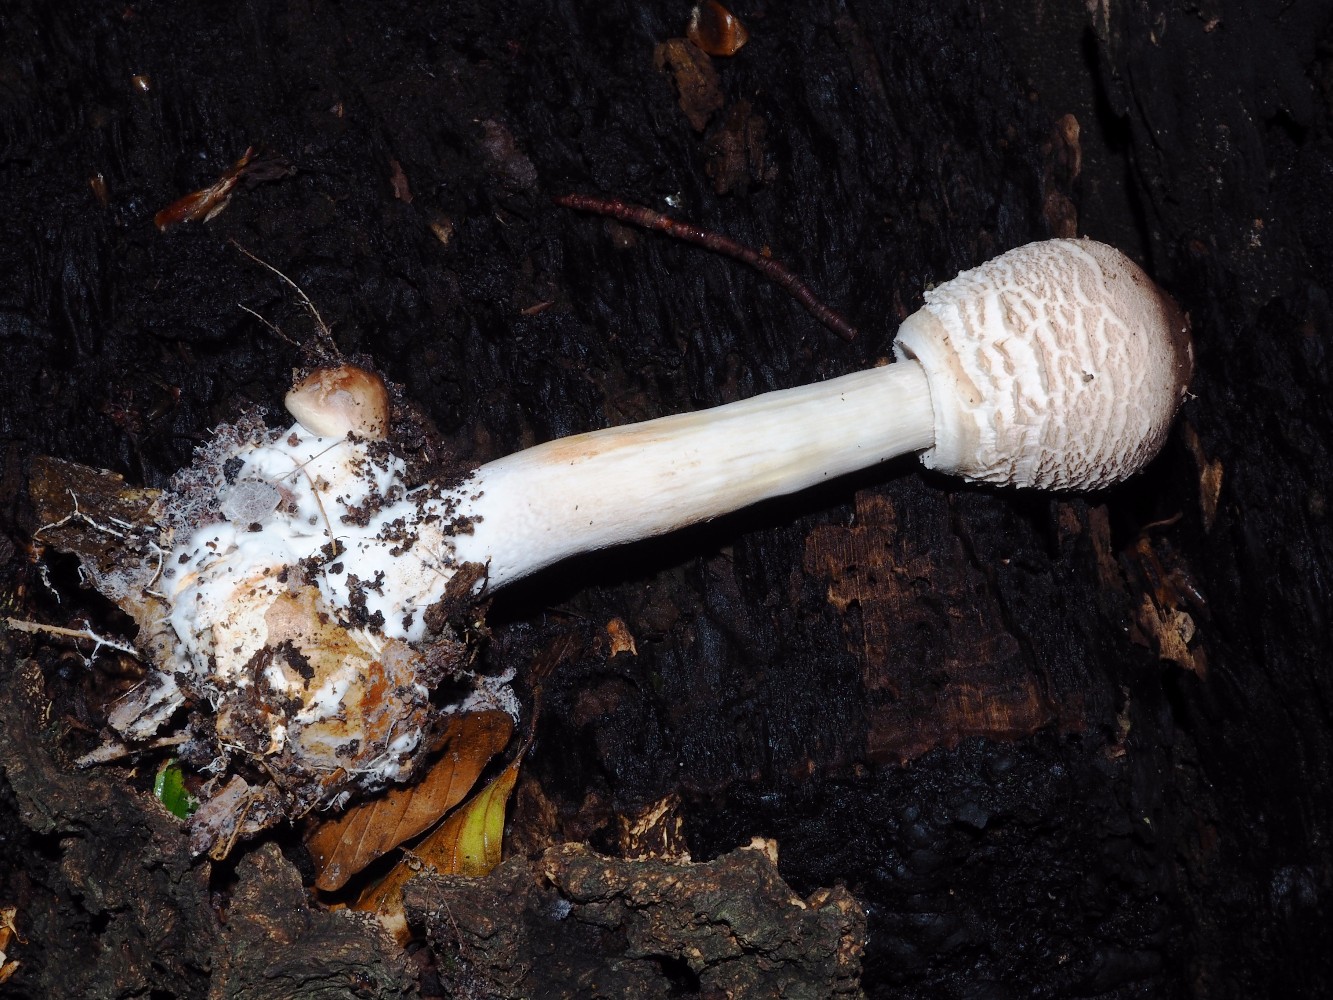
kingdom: Fungi
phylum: Basidiomycota
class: Agaricomycetes
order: Agaricales
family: Agaricaceae
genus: Chlorophyllum
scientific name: Chlorophyllum olivieri
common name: almindelig rabarberhat
